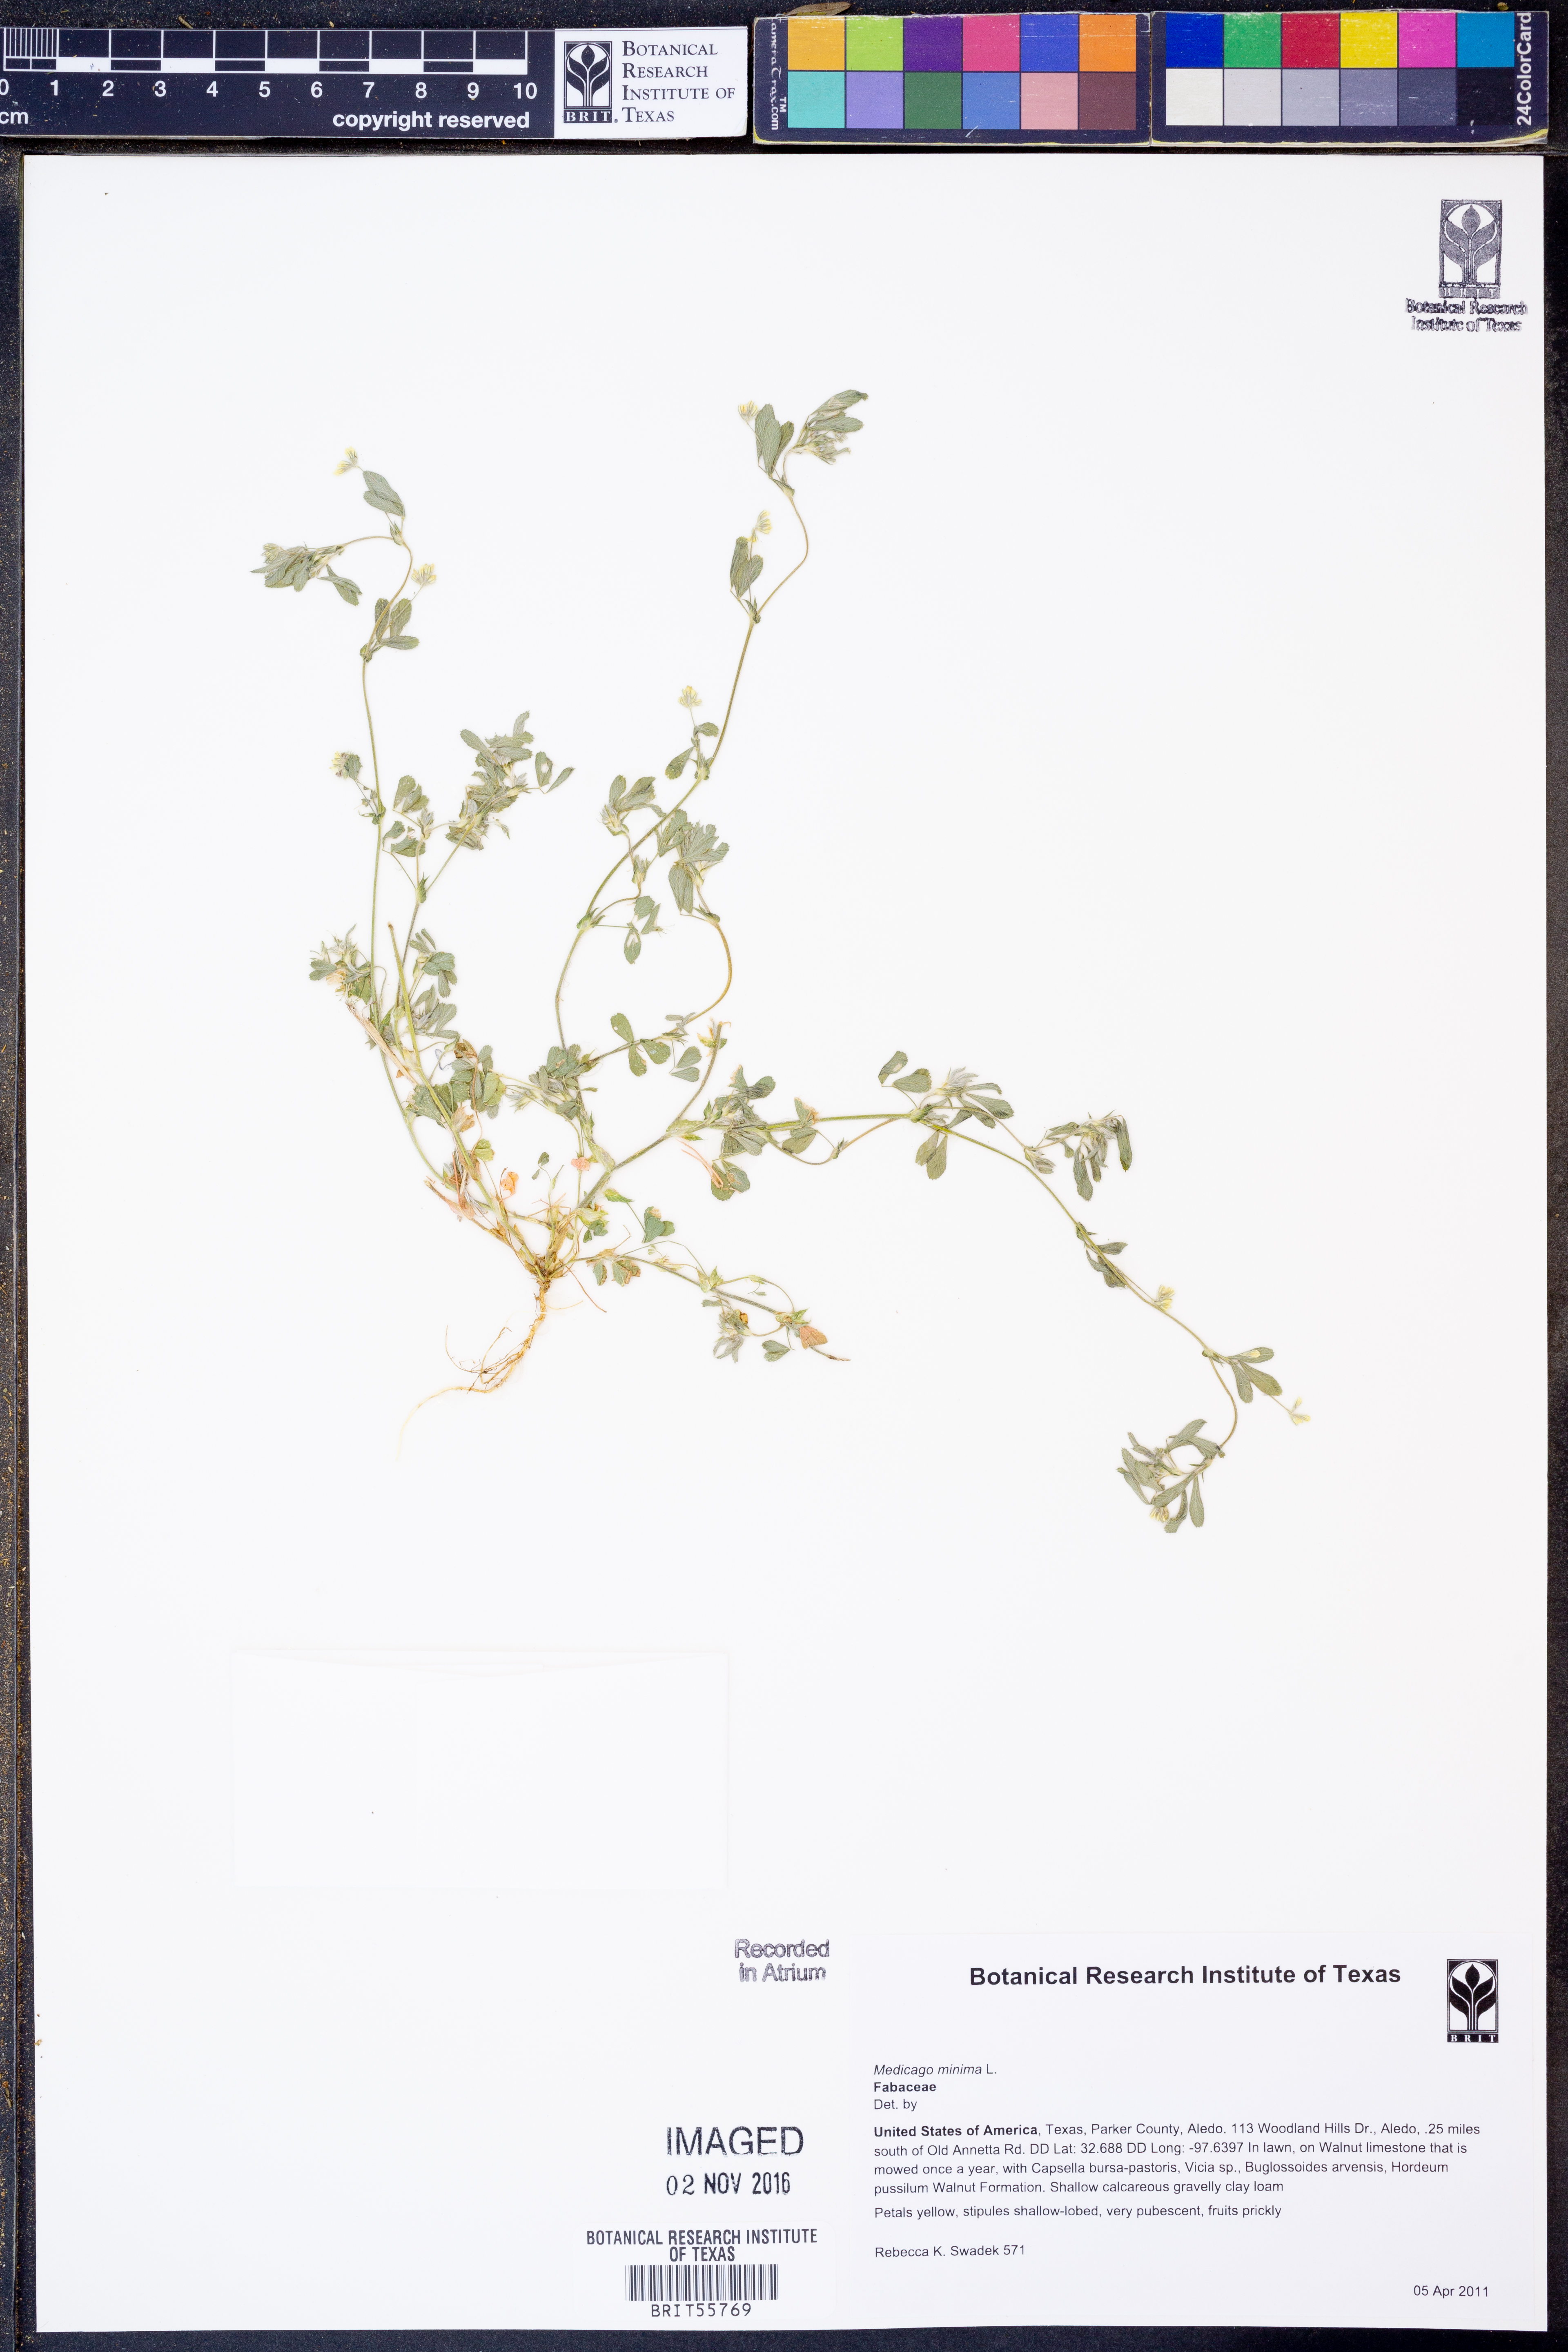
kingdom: Plantae
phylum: Tracheophyta
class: Magnoliopsida
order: Fabales
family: Fabaceae
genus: Medicago
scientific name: Medicago minima
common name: Little bur-clover
